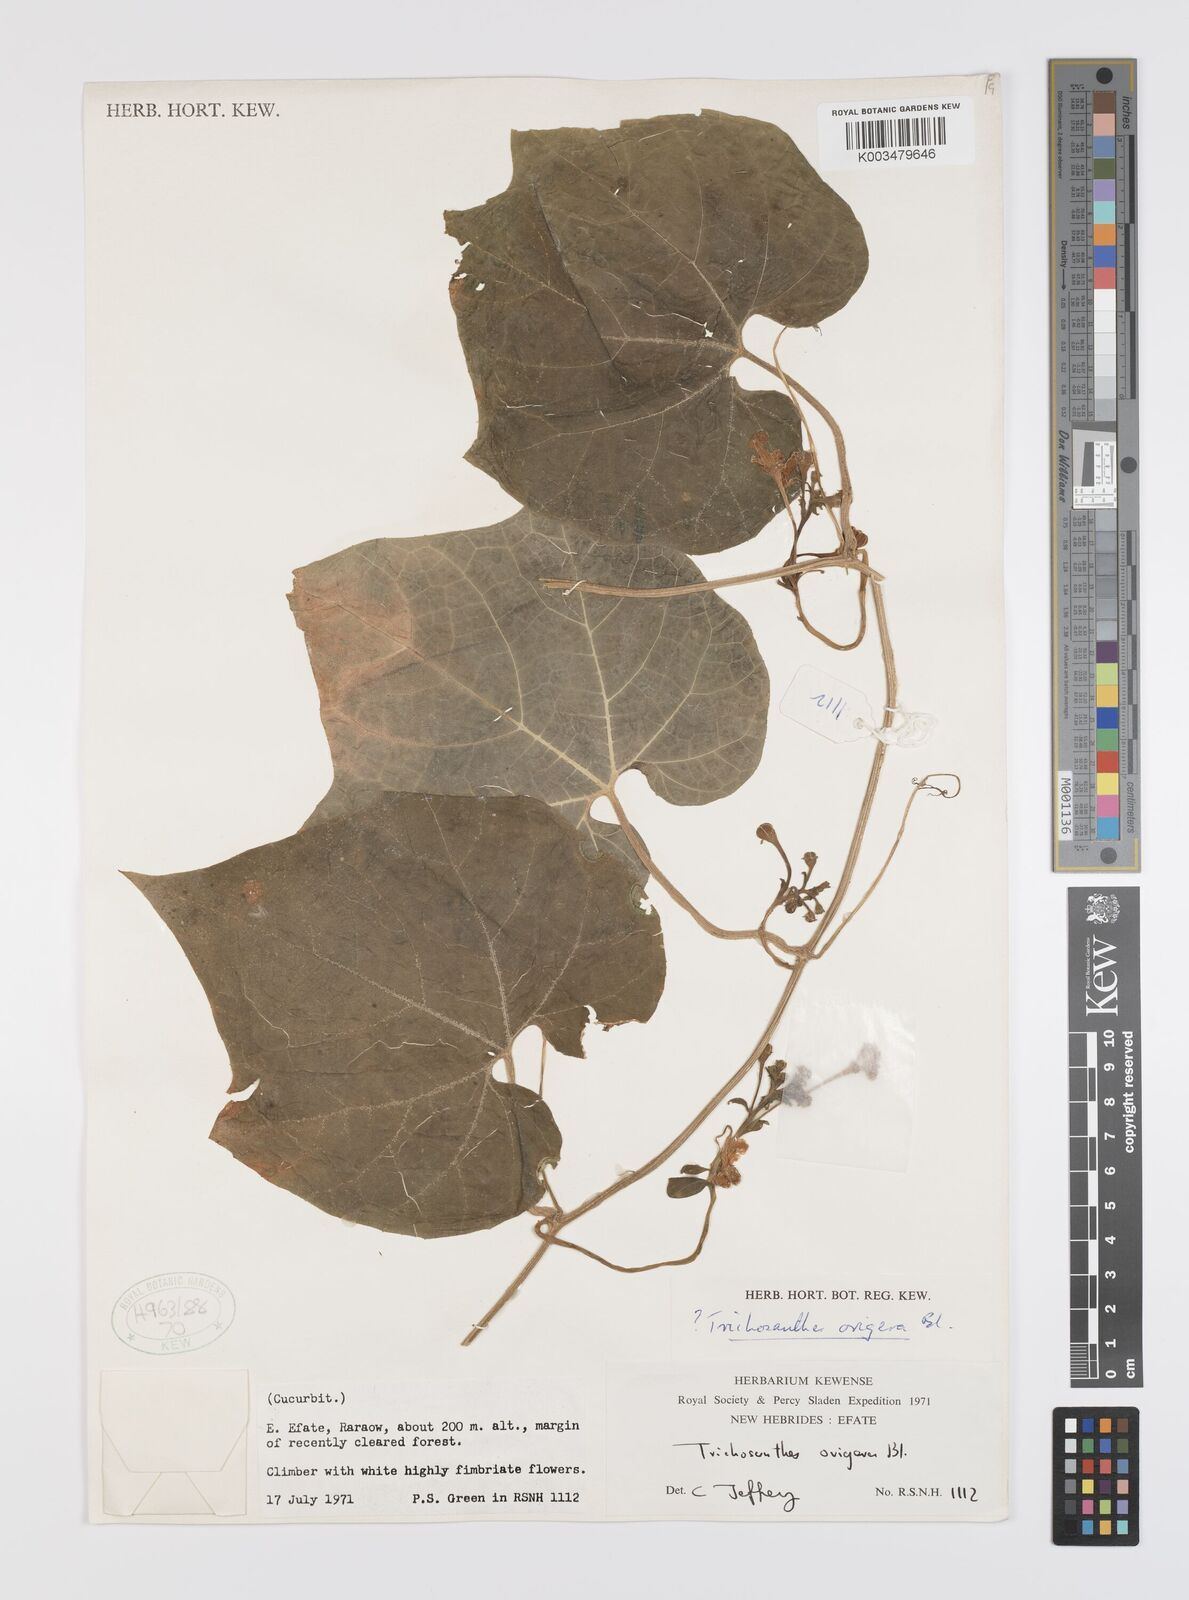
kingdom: Plantae
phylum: Tracheophyta
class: Magnoliopsida
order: Cucurbitales
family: Cucurbitaceae
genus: Trichosanthes
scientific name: Trichosanthes ovigera
